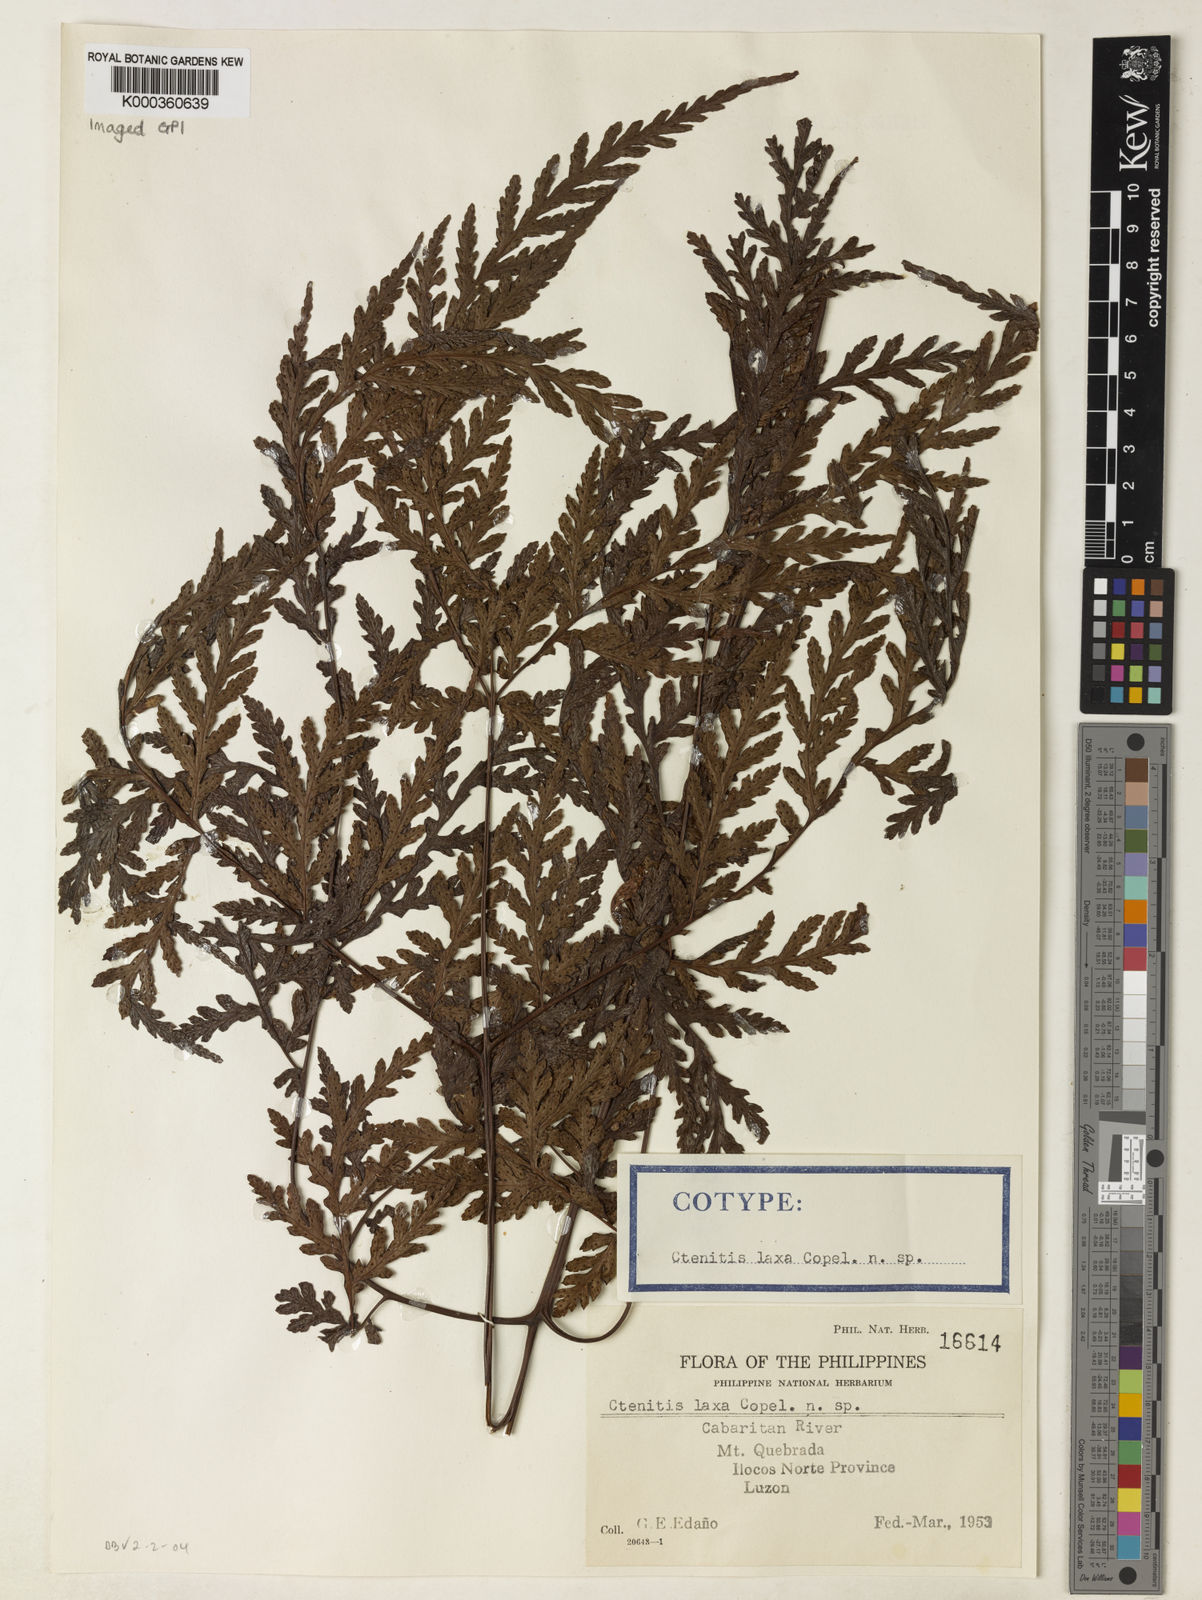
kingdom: Plantae
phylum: Tracheophyta
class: Polypodiopsida
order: Polypodiales
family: Tectariaceae
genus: Tectaria
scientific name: Tectaria laxa
